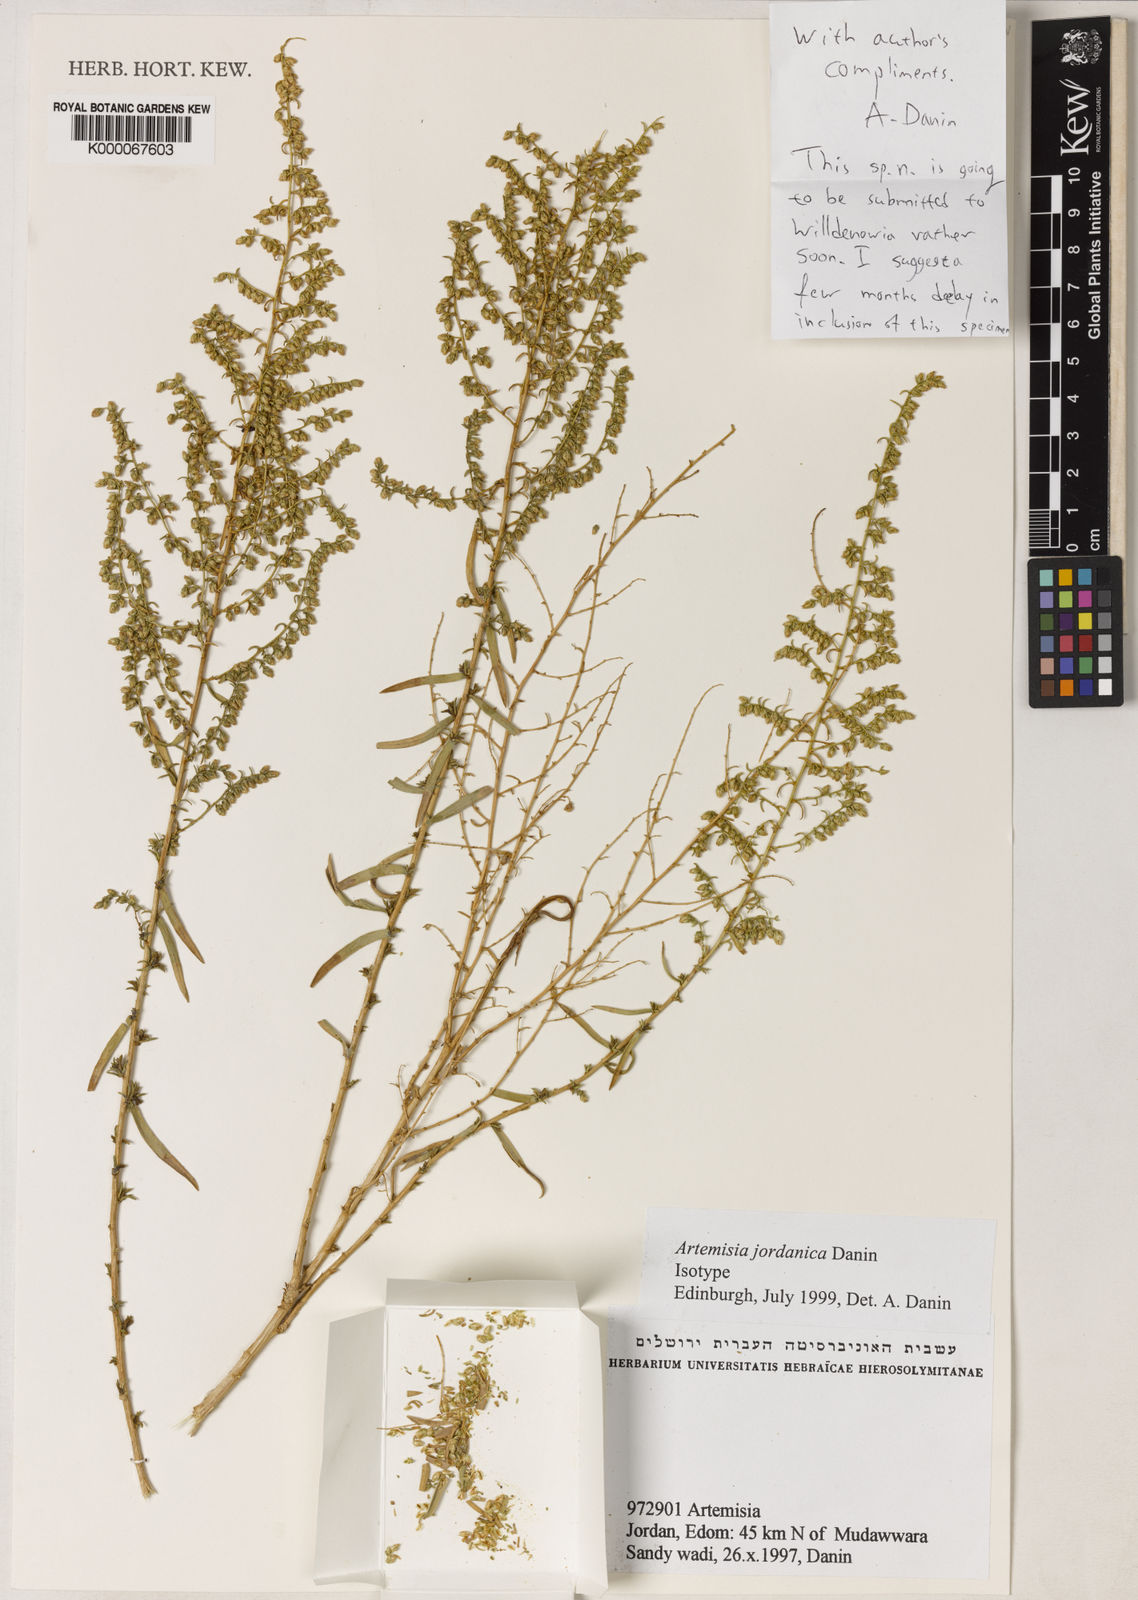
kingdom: Plantae
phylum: Tracheophyta
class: Magnoliopsida
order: Asterales
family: Asteraceae
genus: Artemisia
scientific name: Artemisia jordanica
